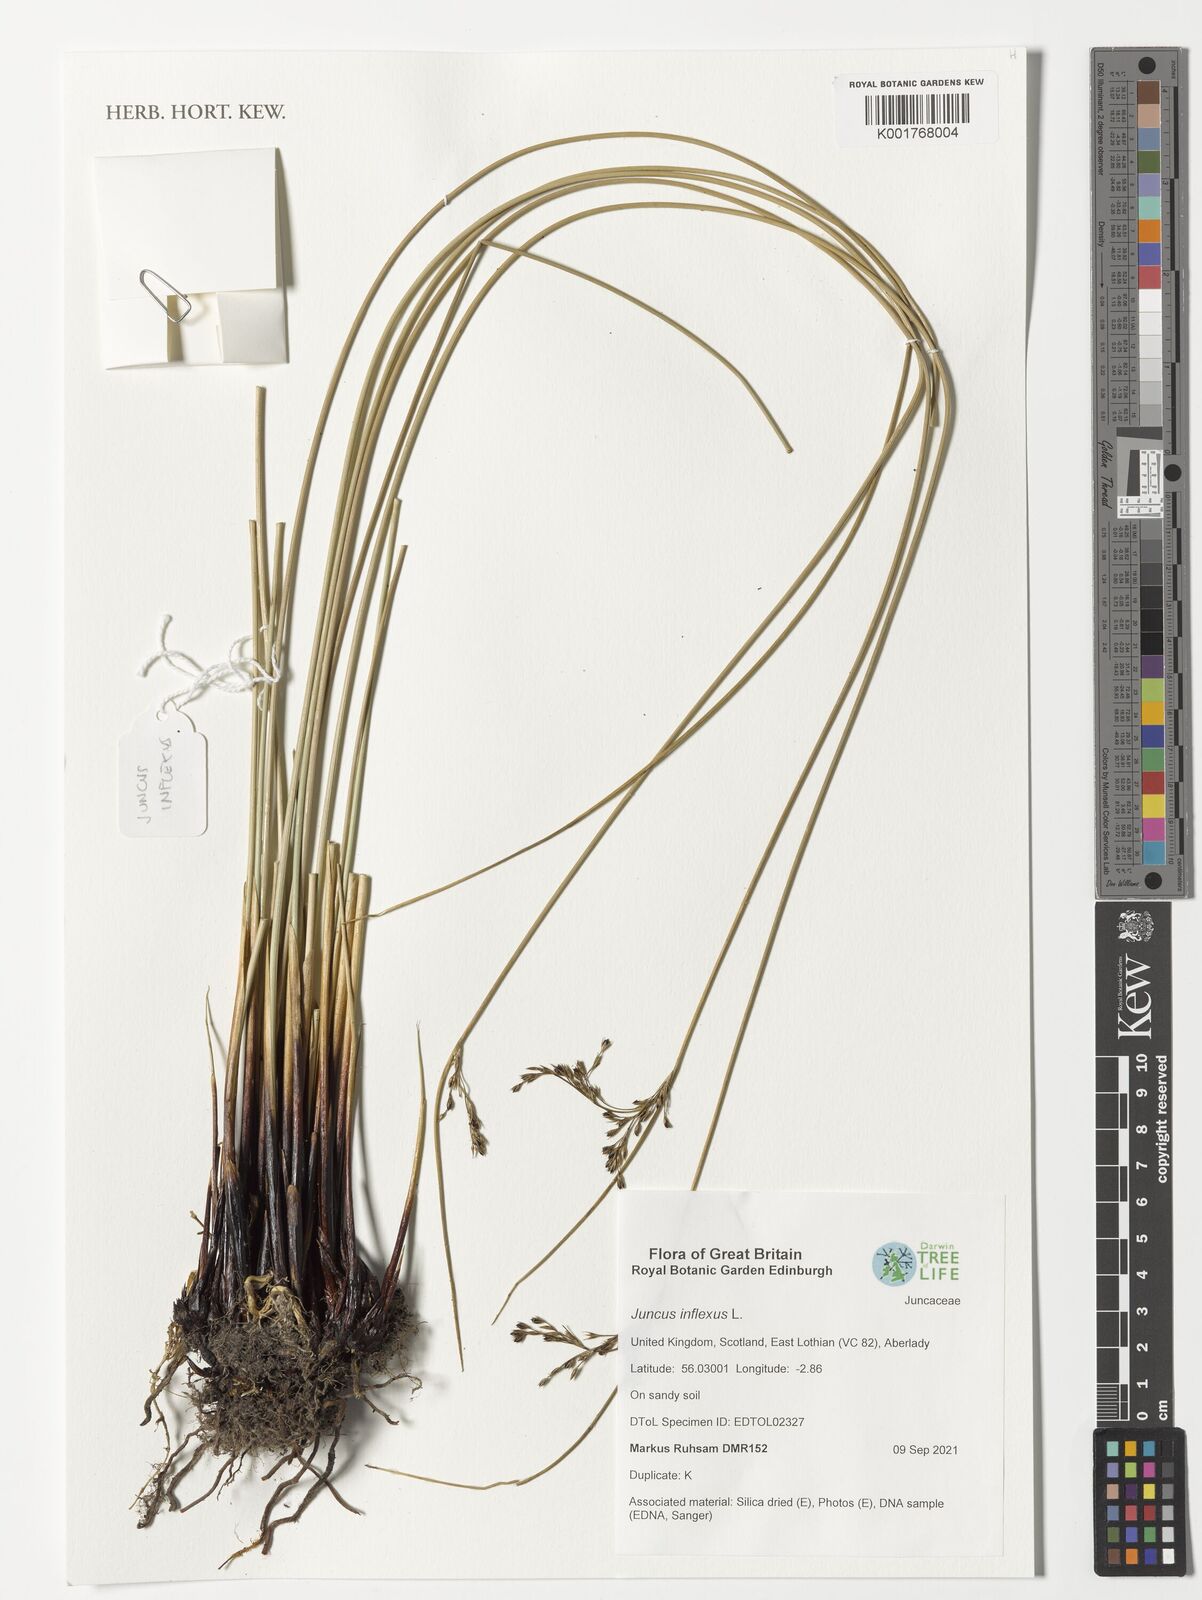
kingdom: Plantae
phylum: Tracheophyta
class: Liliopsida
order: Poales
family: Juncaceae
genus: Juncus
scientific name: Juncus inflexus
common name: Hard rush
